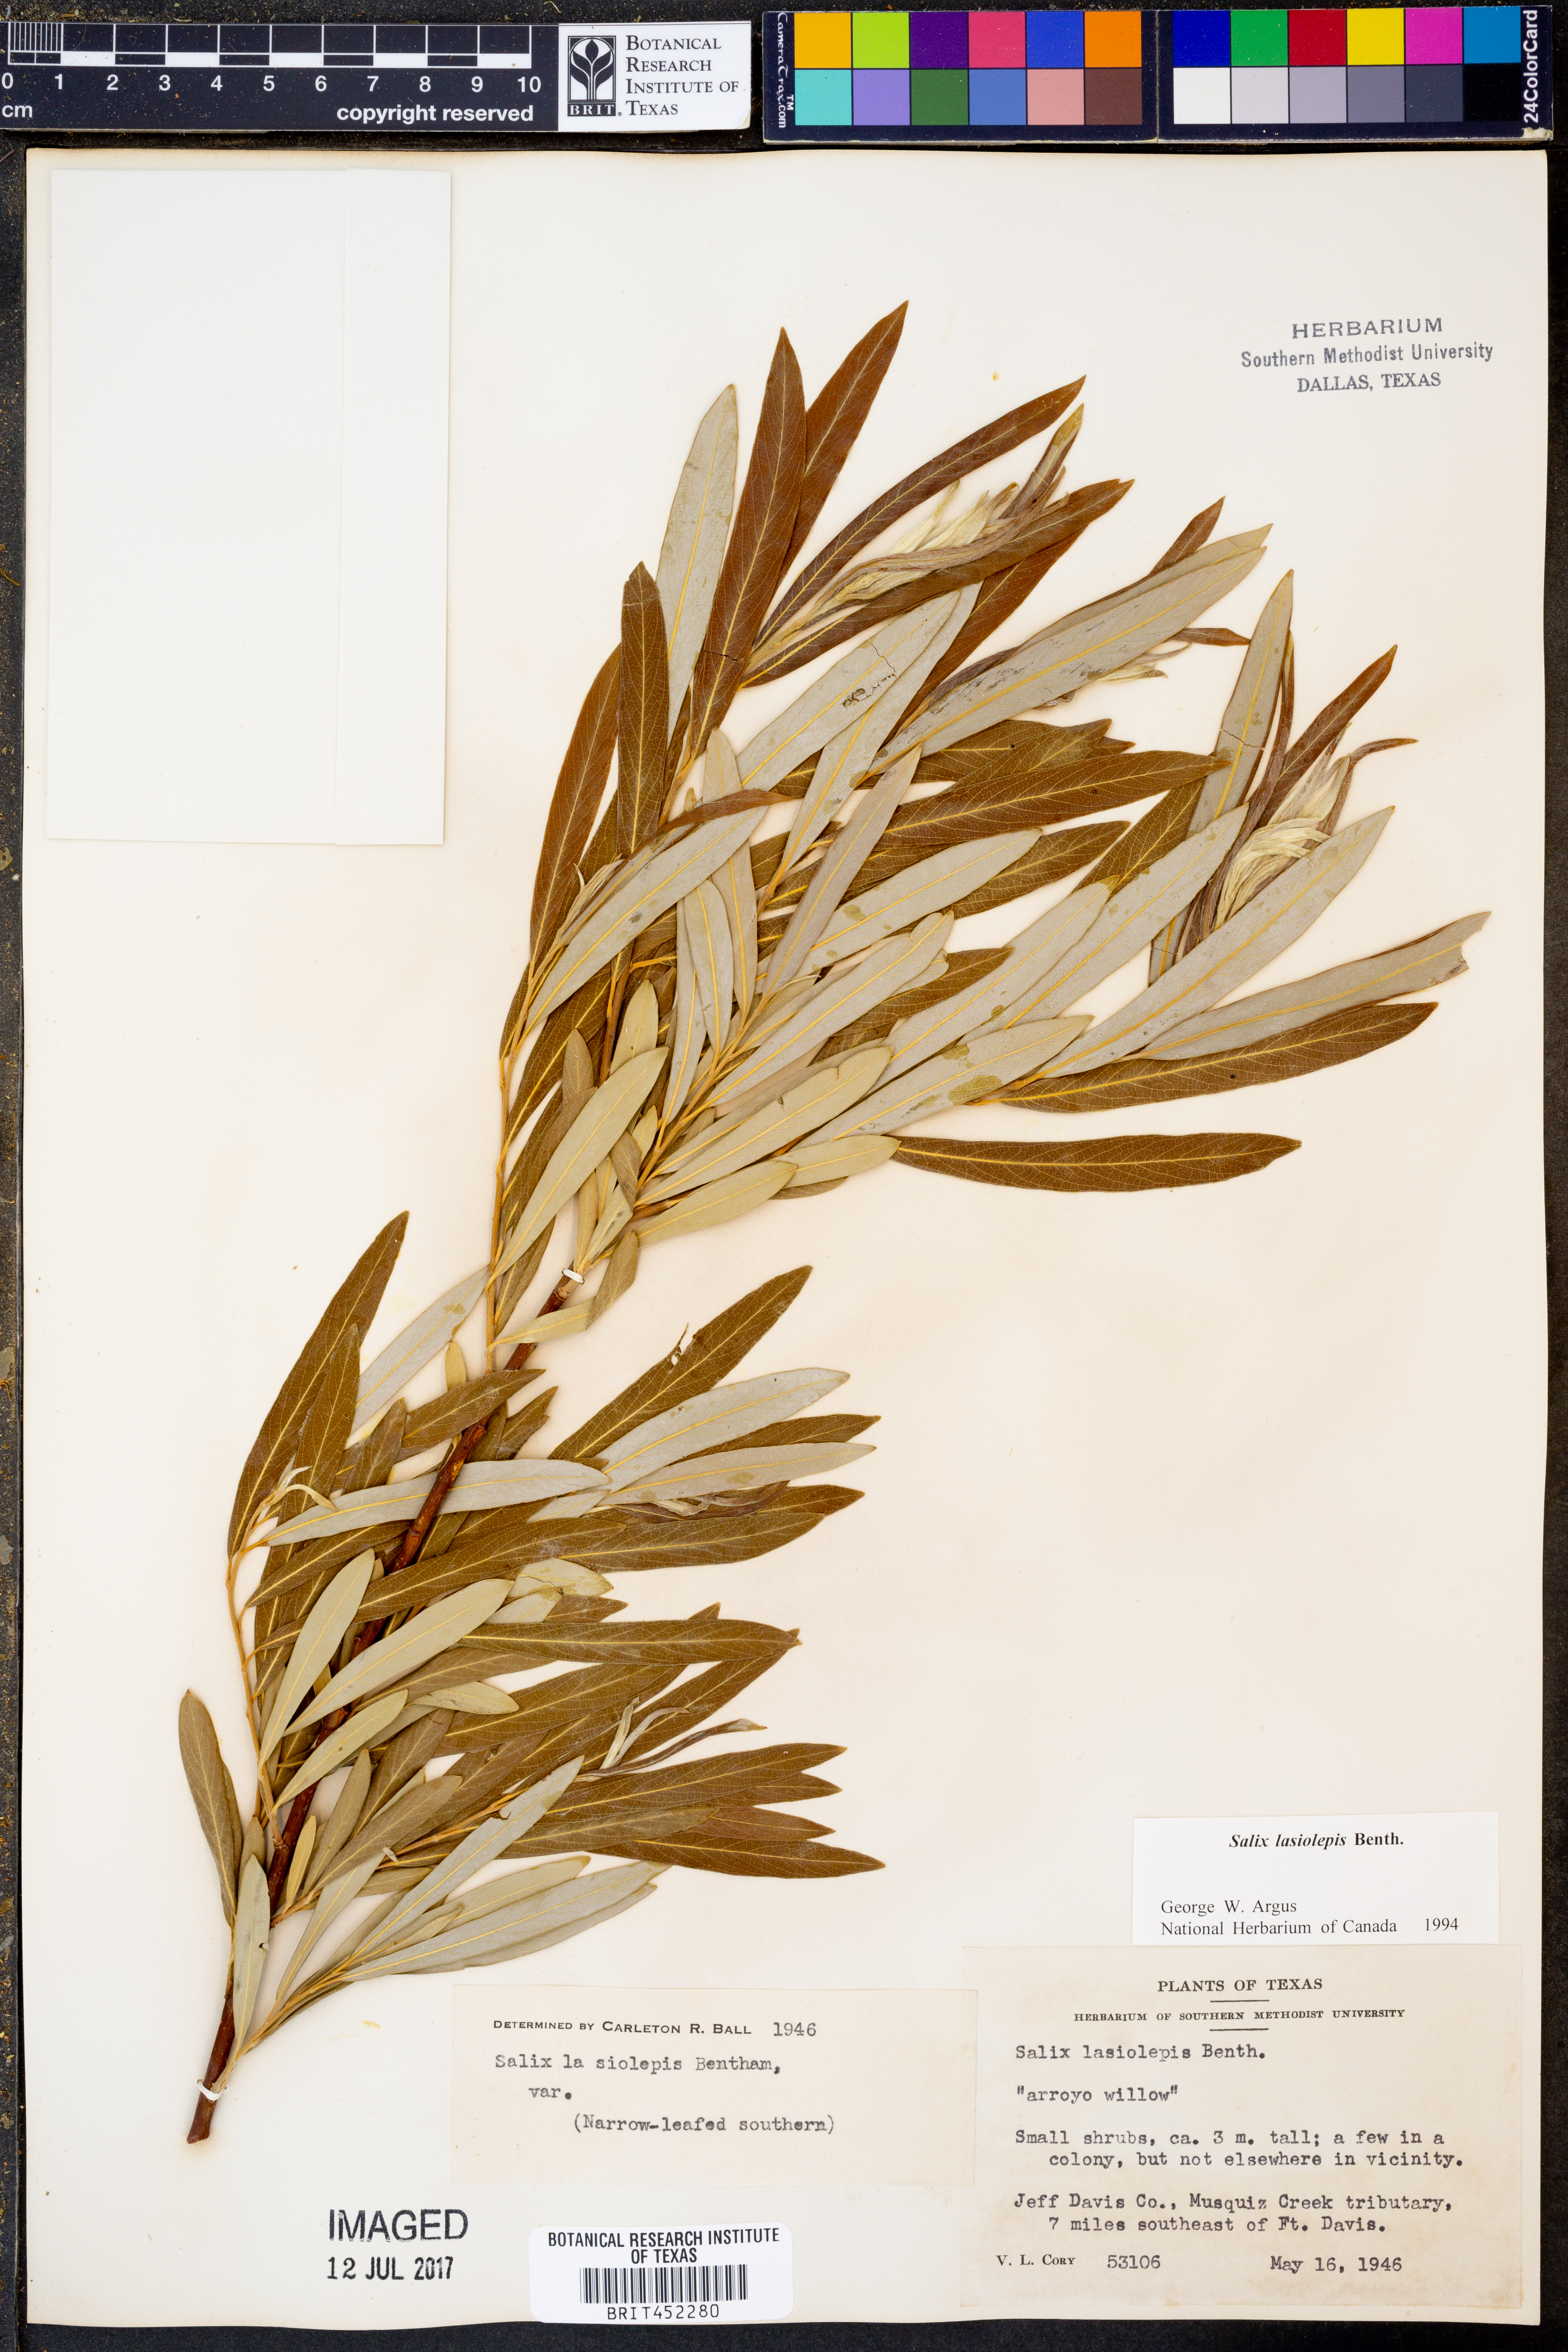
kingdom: Plantae
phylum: Tracheophyta
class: Magnoliopsida
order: Malpighiales
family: Salicaceae
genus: Salix
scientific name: Salix lasiolepis
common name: Arroyo willow
